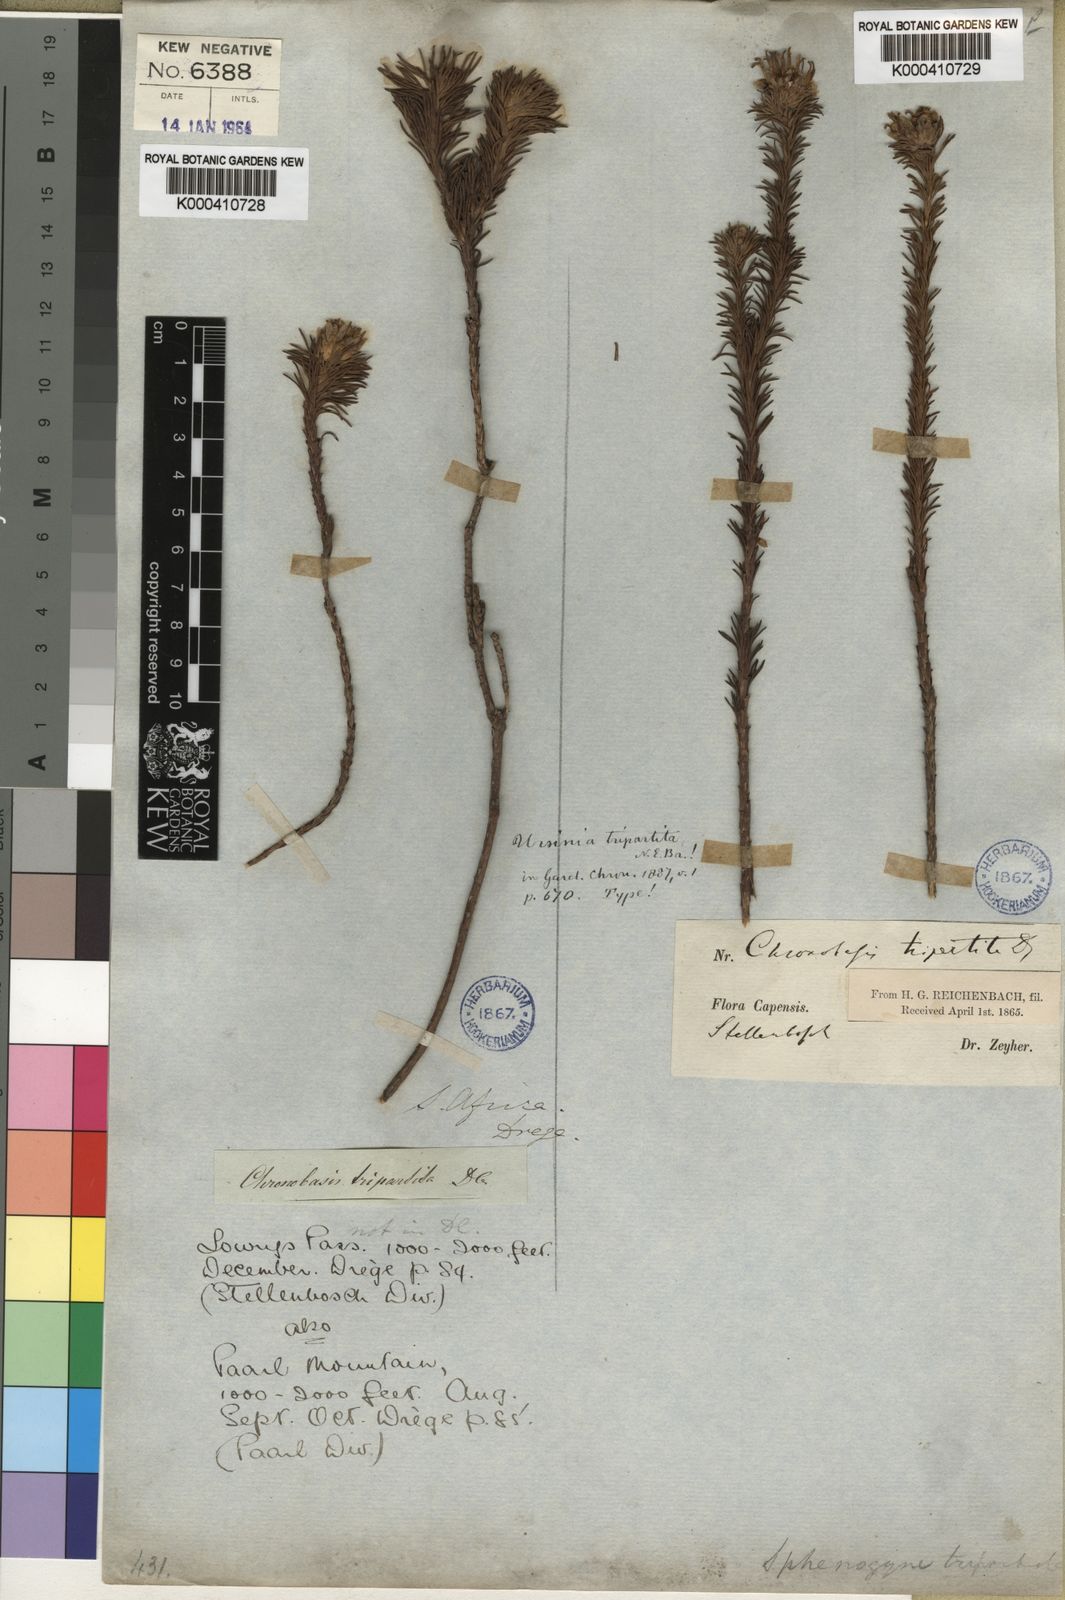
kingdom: Plantae
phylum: Tracheophyta
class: Magnoliopsida
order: Asterales
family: Asteraceae
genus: Ursinia
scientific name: Ursinia quinquepartita
